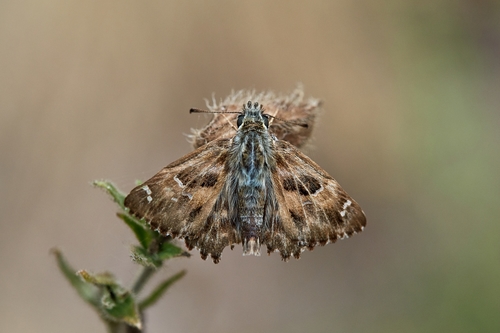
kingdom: Animalia
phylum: Arthropoda
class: Insecta
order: Lepidoptera
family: Hesperiidae
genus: Carcharodus
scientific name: Carcharodus alceae
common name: Mallow skipper
